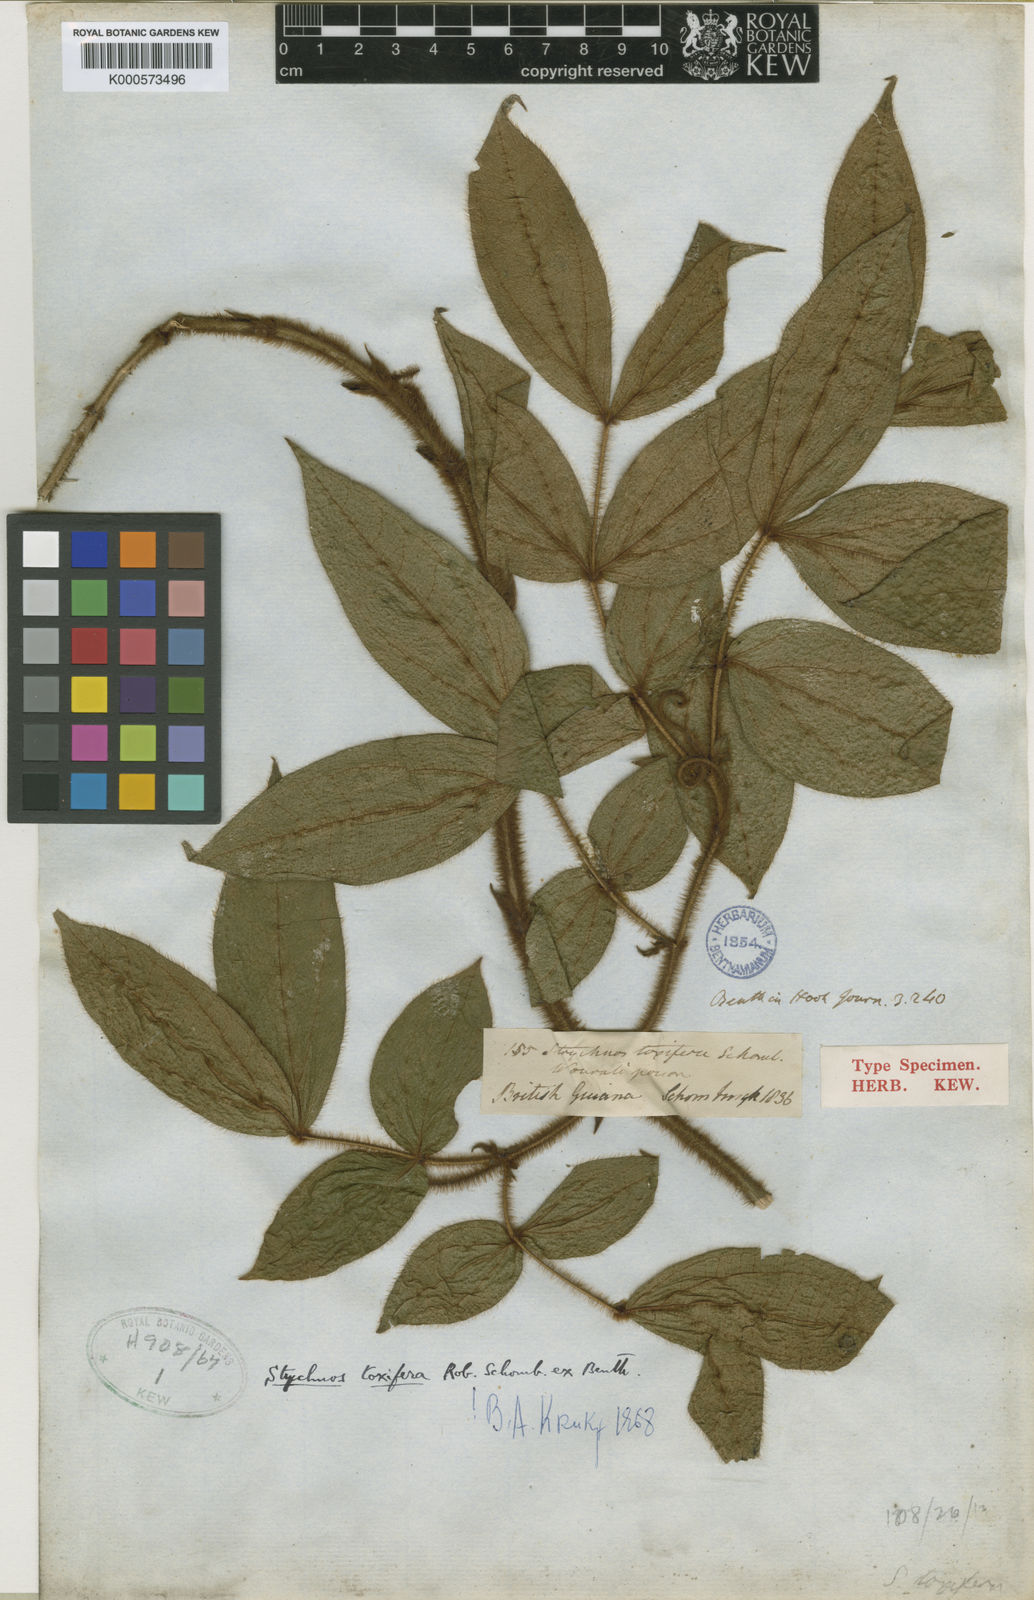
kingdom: Plantae
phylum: Tracheophyta
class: Magnoliopsida
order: Gentianales
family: Loganiaceae
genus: Strychnos
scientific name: Strychnos
